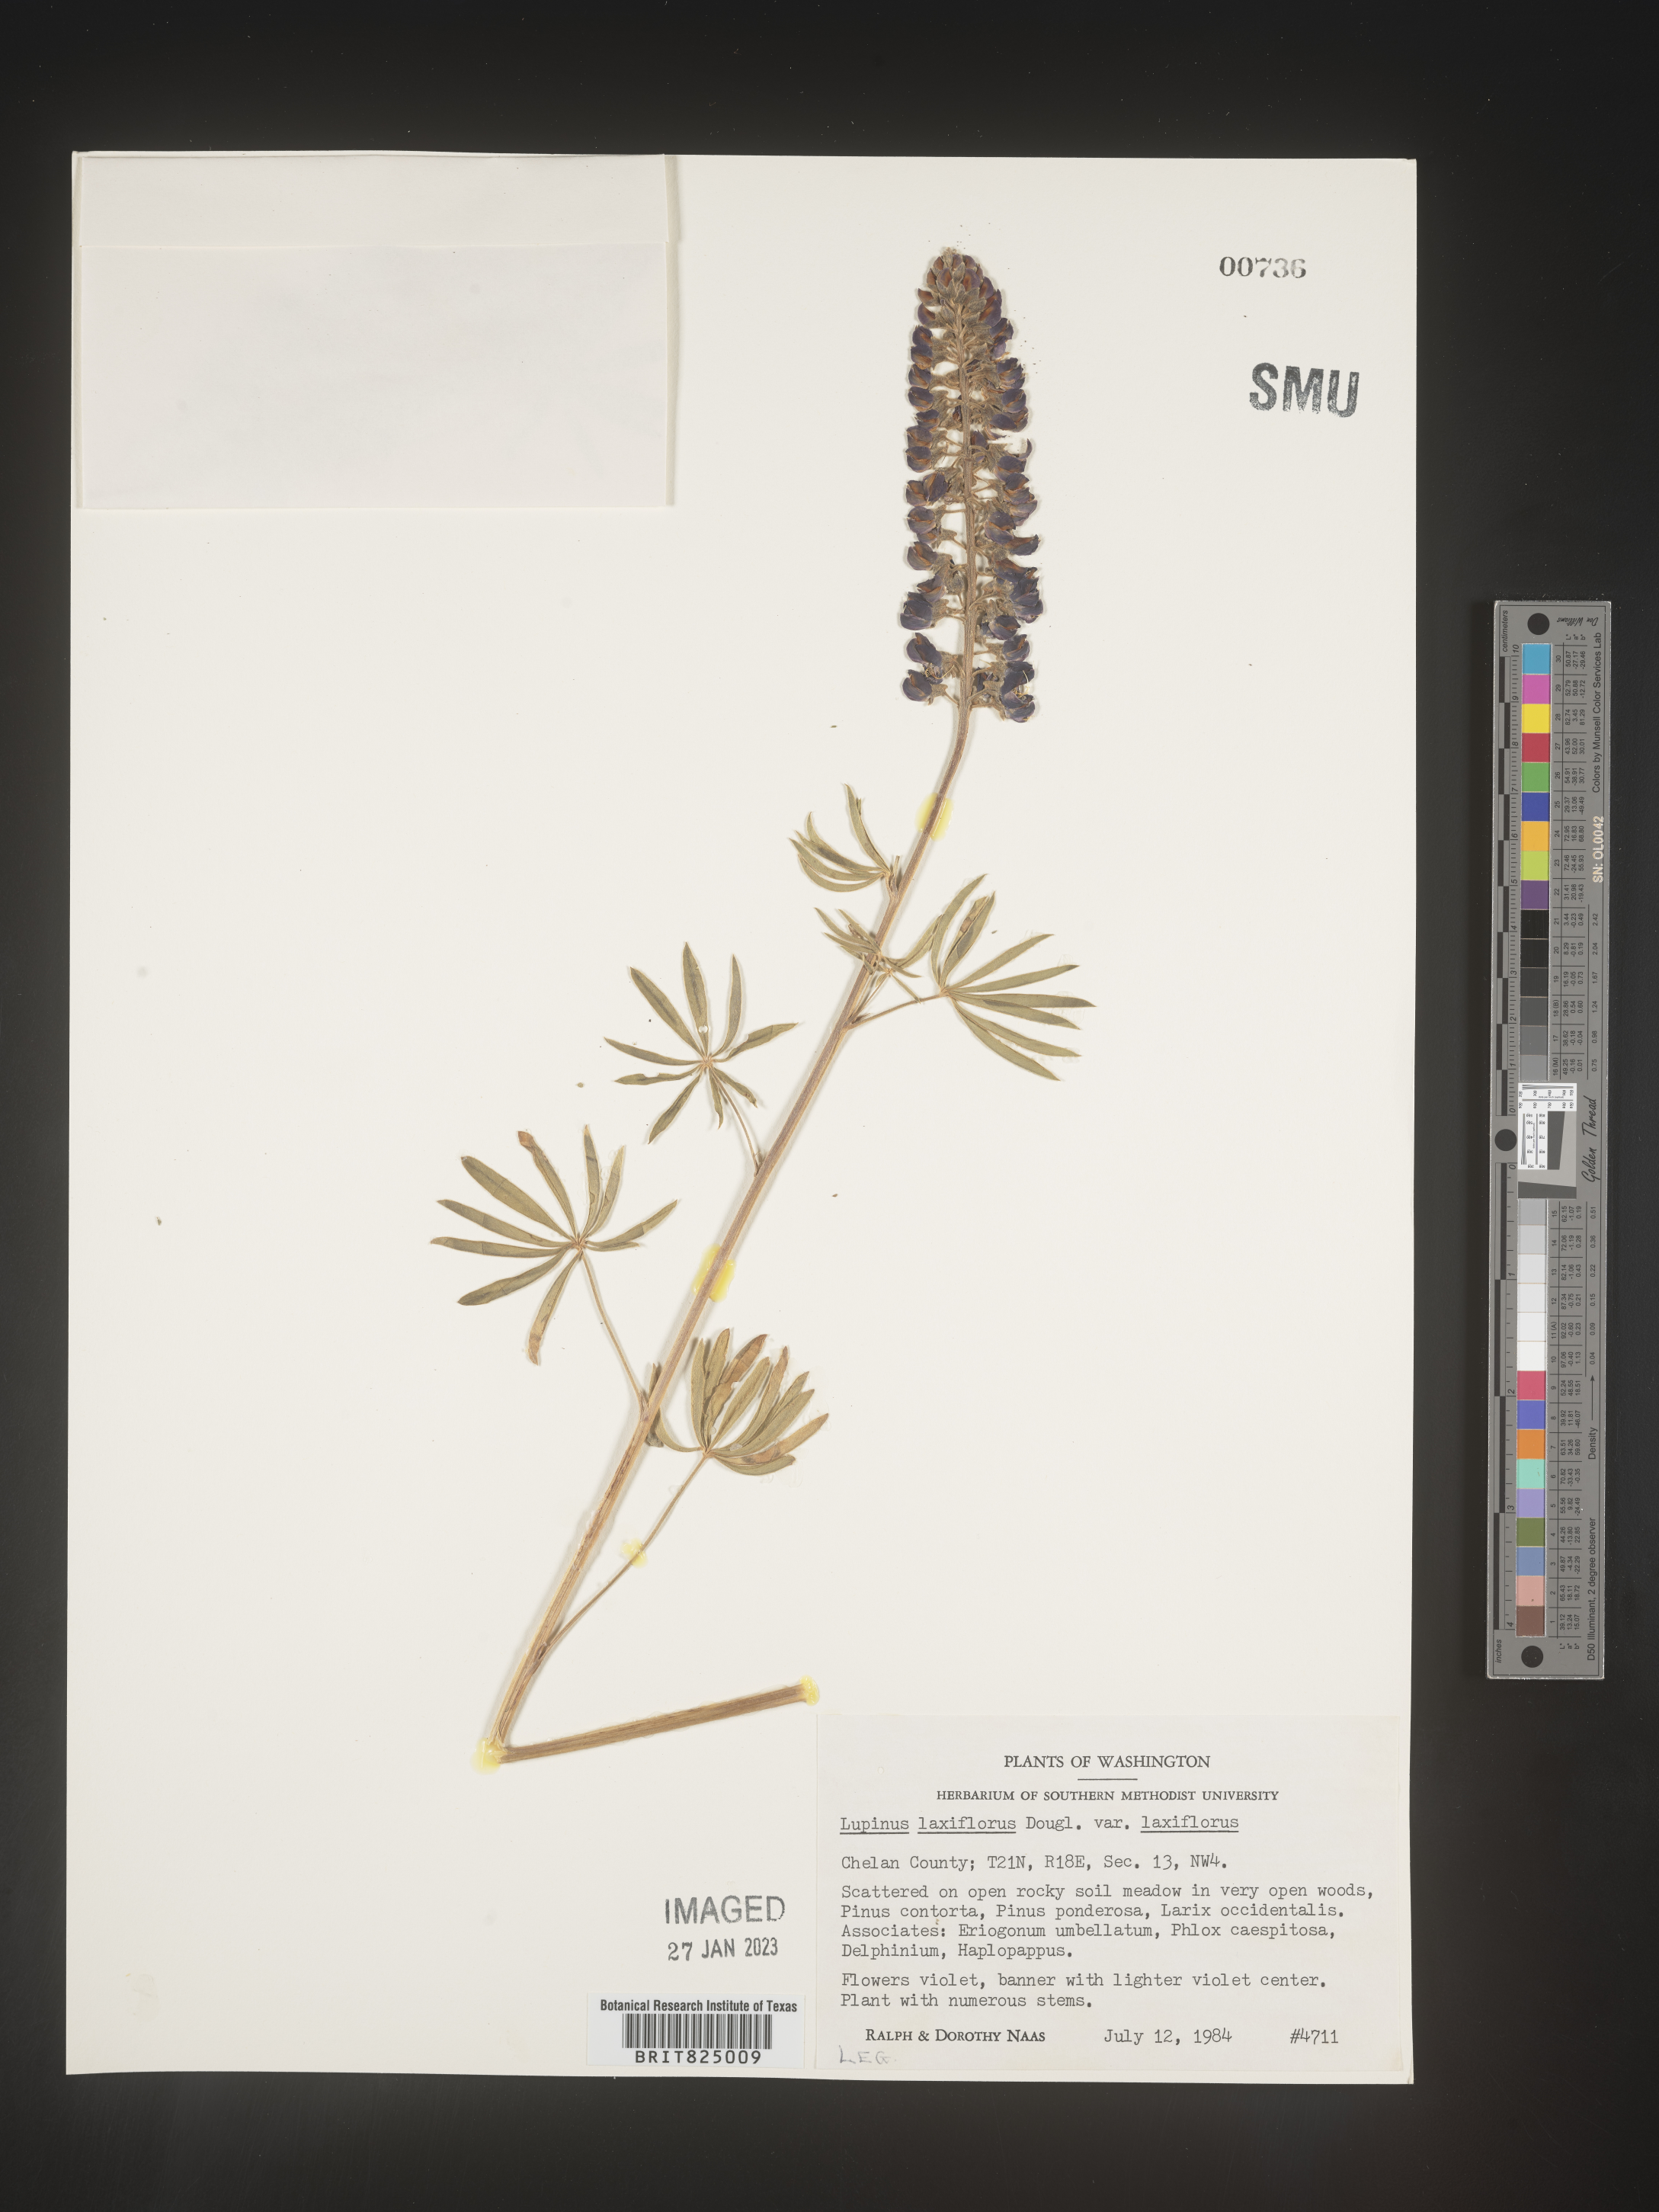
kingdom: Plantae
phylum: Tracheophyta
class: Magnoliopsida
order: Fabales
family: Fabaceae
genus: Lupinus
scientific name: Lupinus
